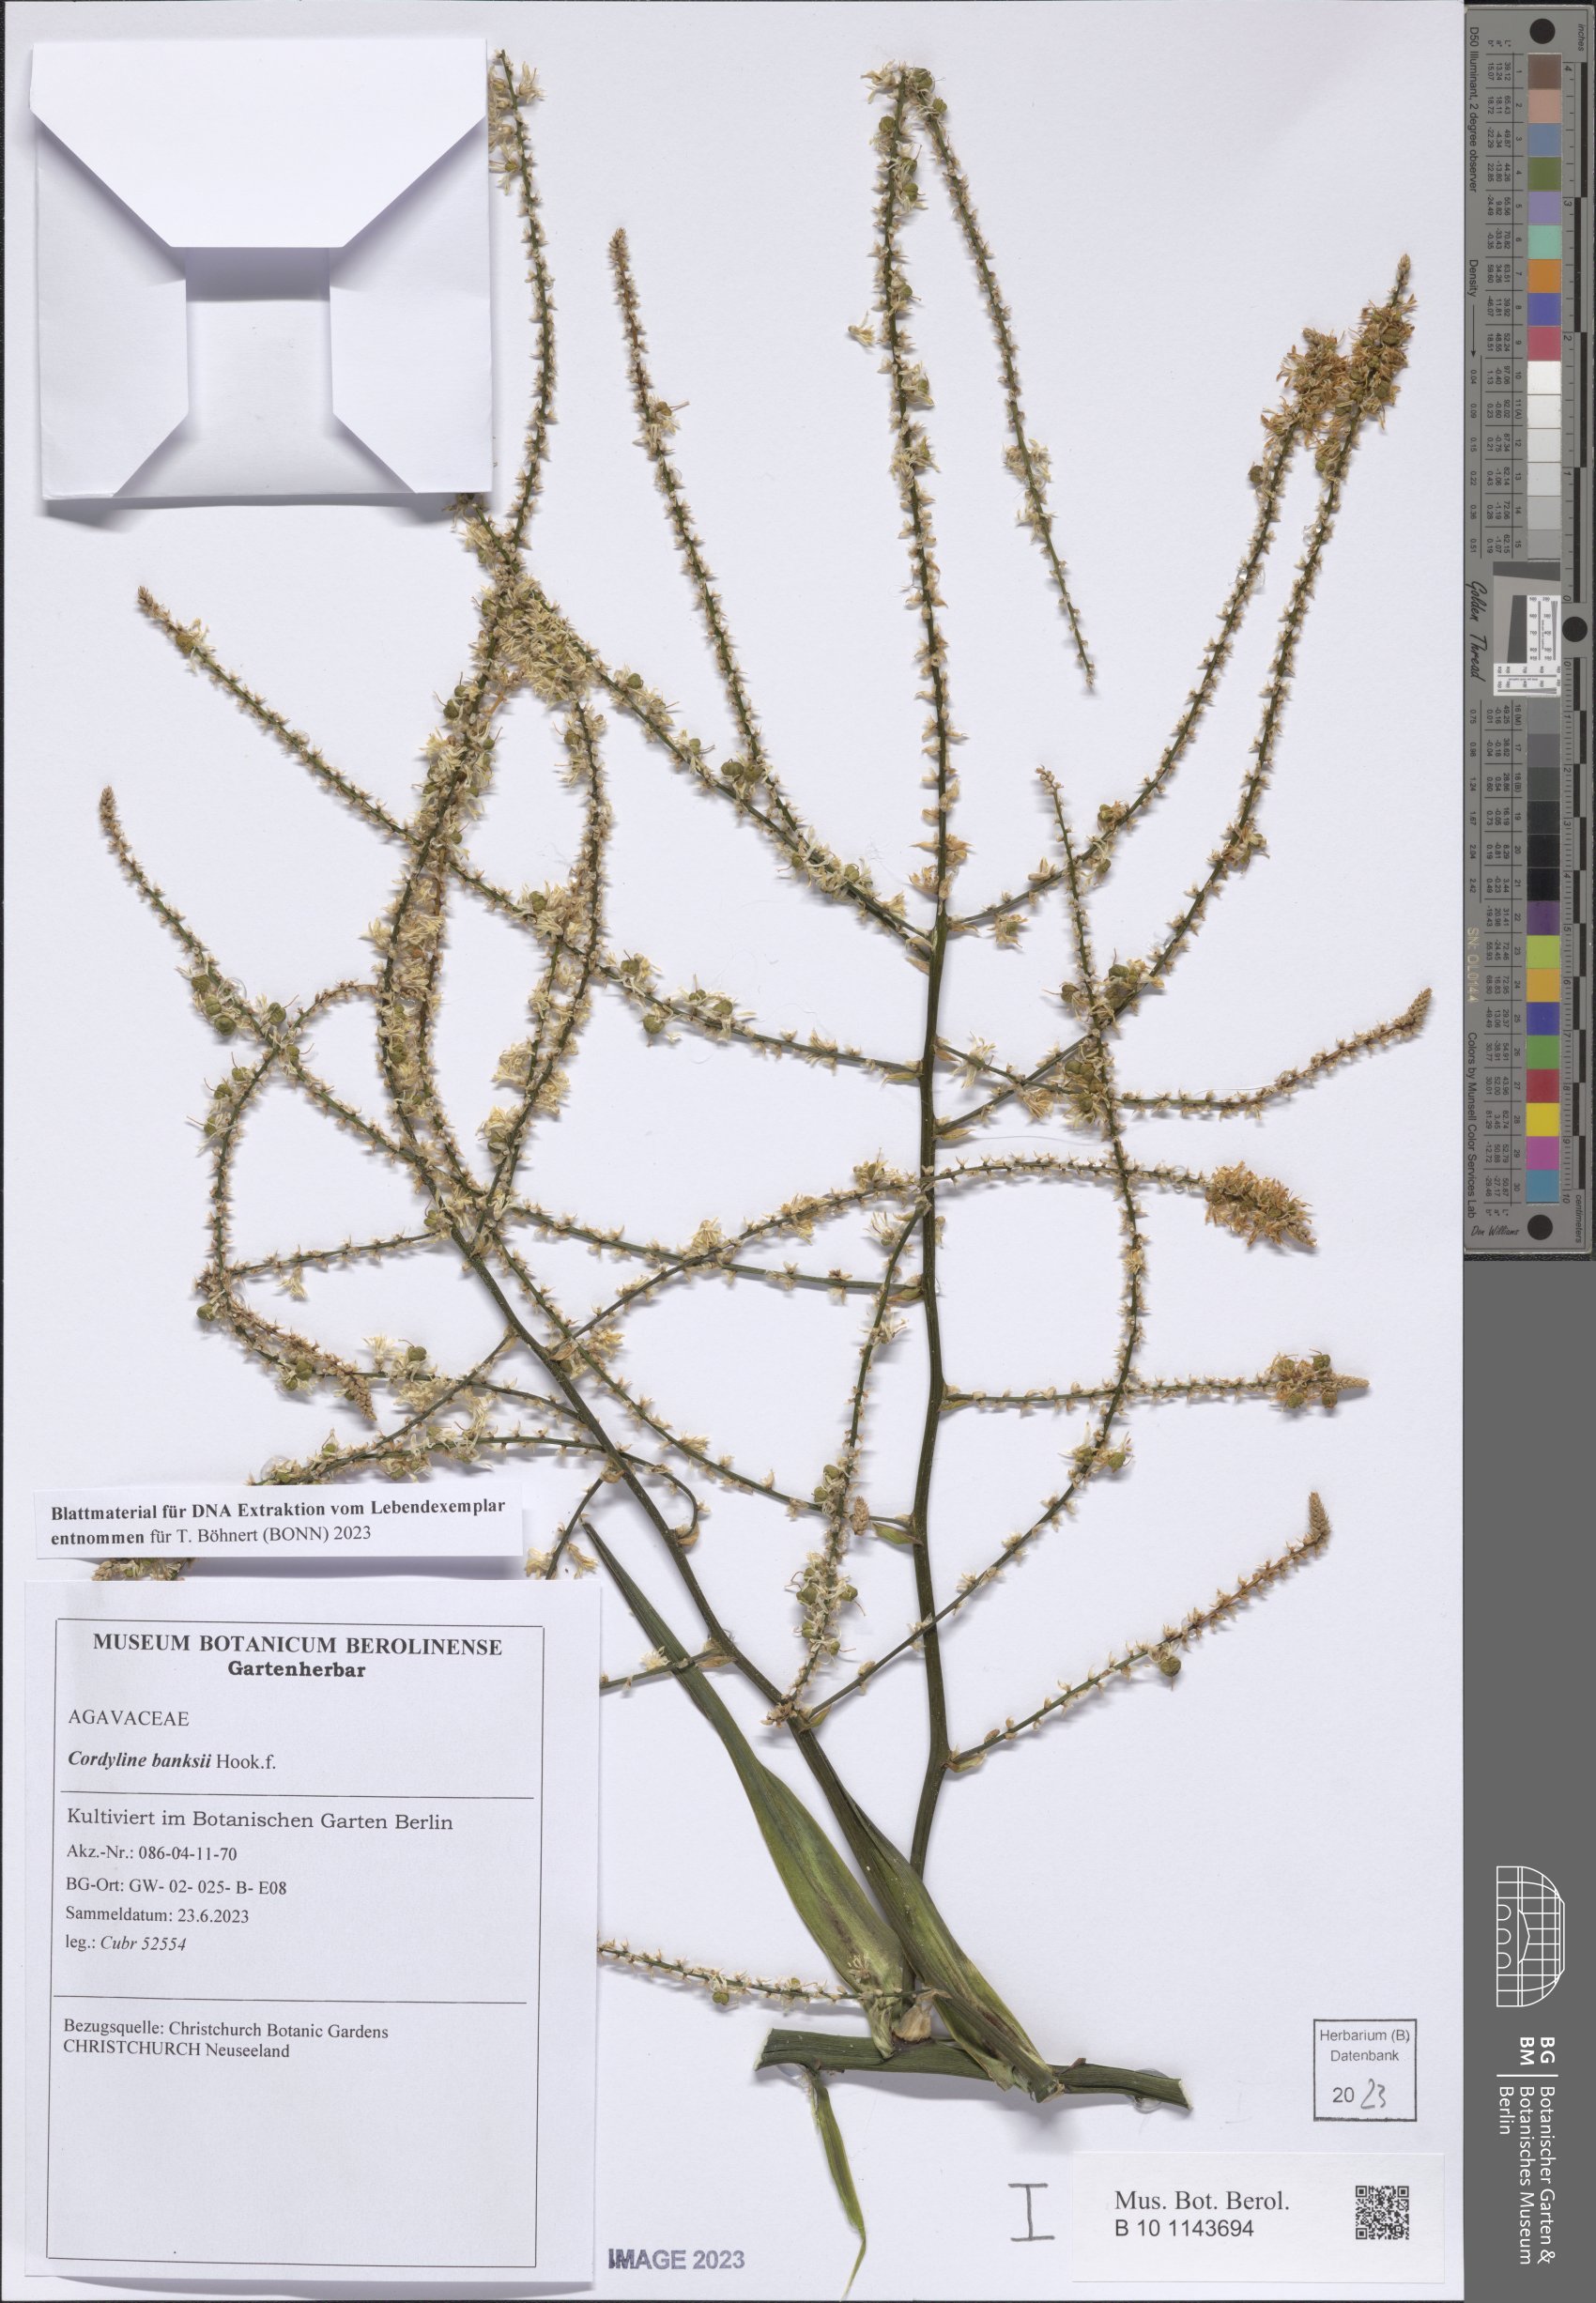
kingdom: Plantae
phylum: Tracheophyta
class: Liliopsida
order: Asparagales
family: Asparagaceae
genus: Cordyline
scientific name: Cordyline banksii
